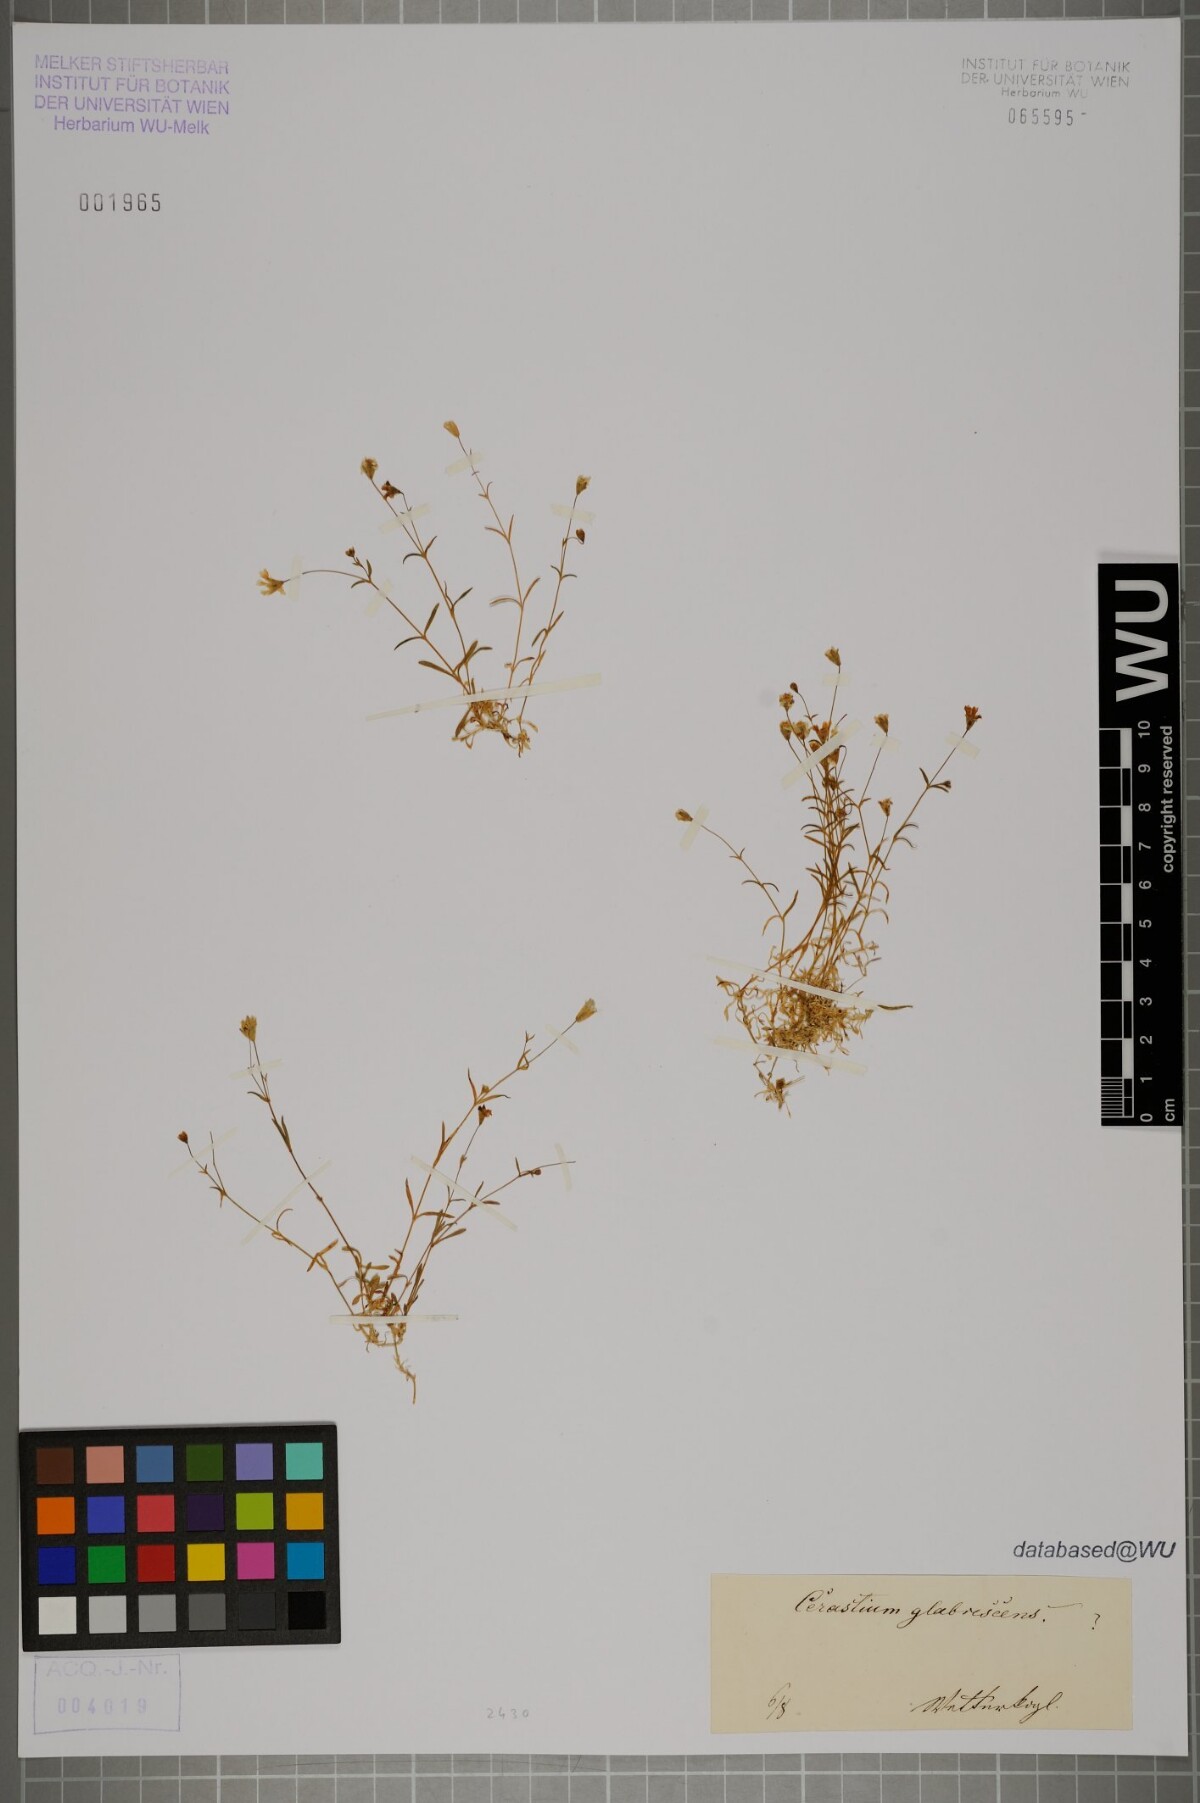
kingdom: Plantae
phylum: Tracheophyta
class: Magnoliopsida
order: Caryophyllales
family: Caryophyllaceae
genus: Cerastium
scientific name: Cerastium
